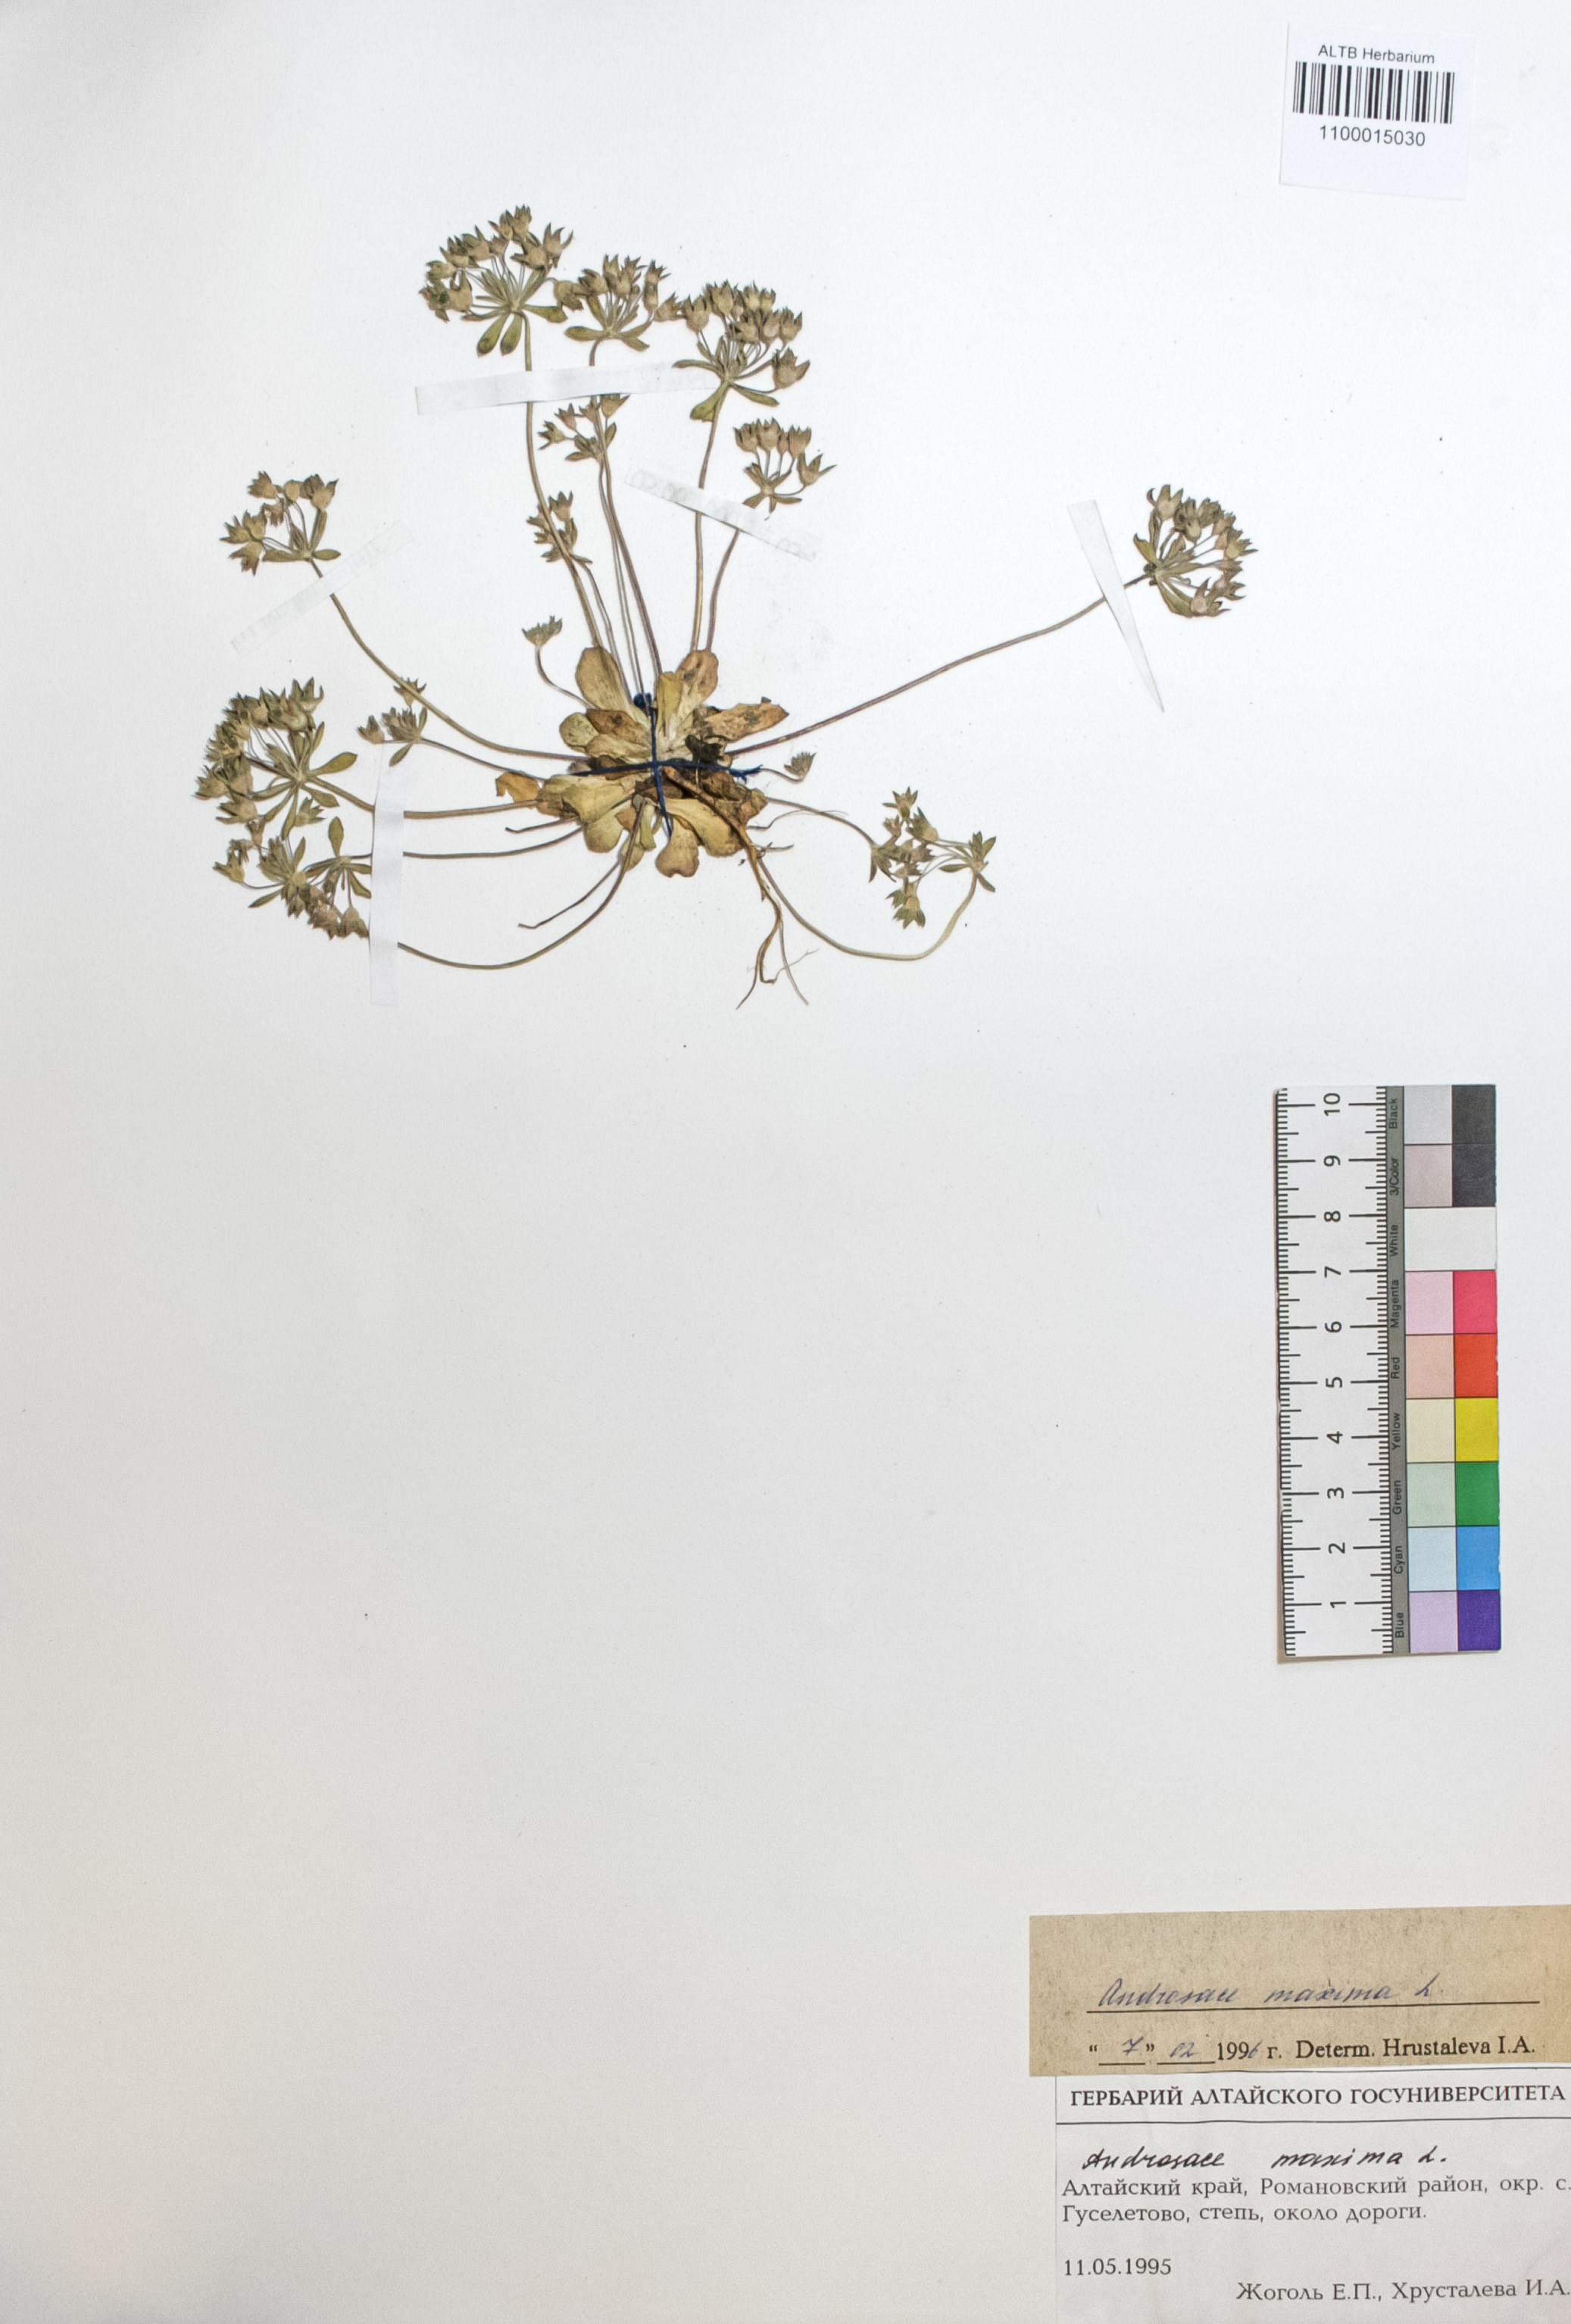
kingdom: Plantae
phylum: Tracheophyta
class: Magnoliopsida
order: Ericales
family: Primulaceae
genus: Androsace
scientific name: Androsace maxima
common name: Annual androsace
